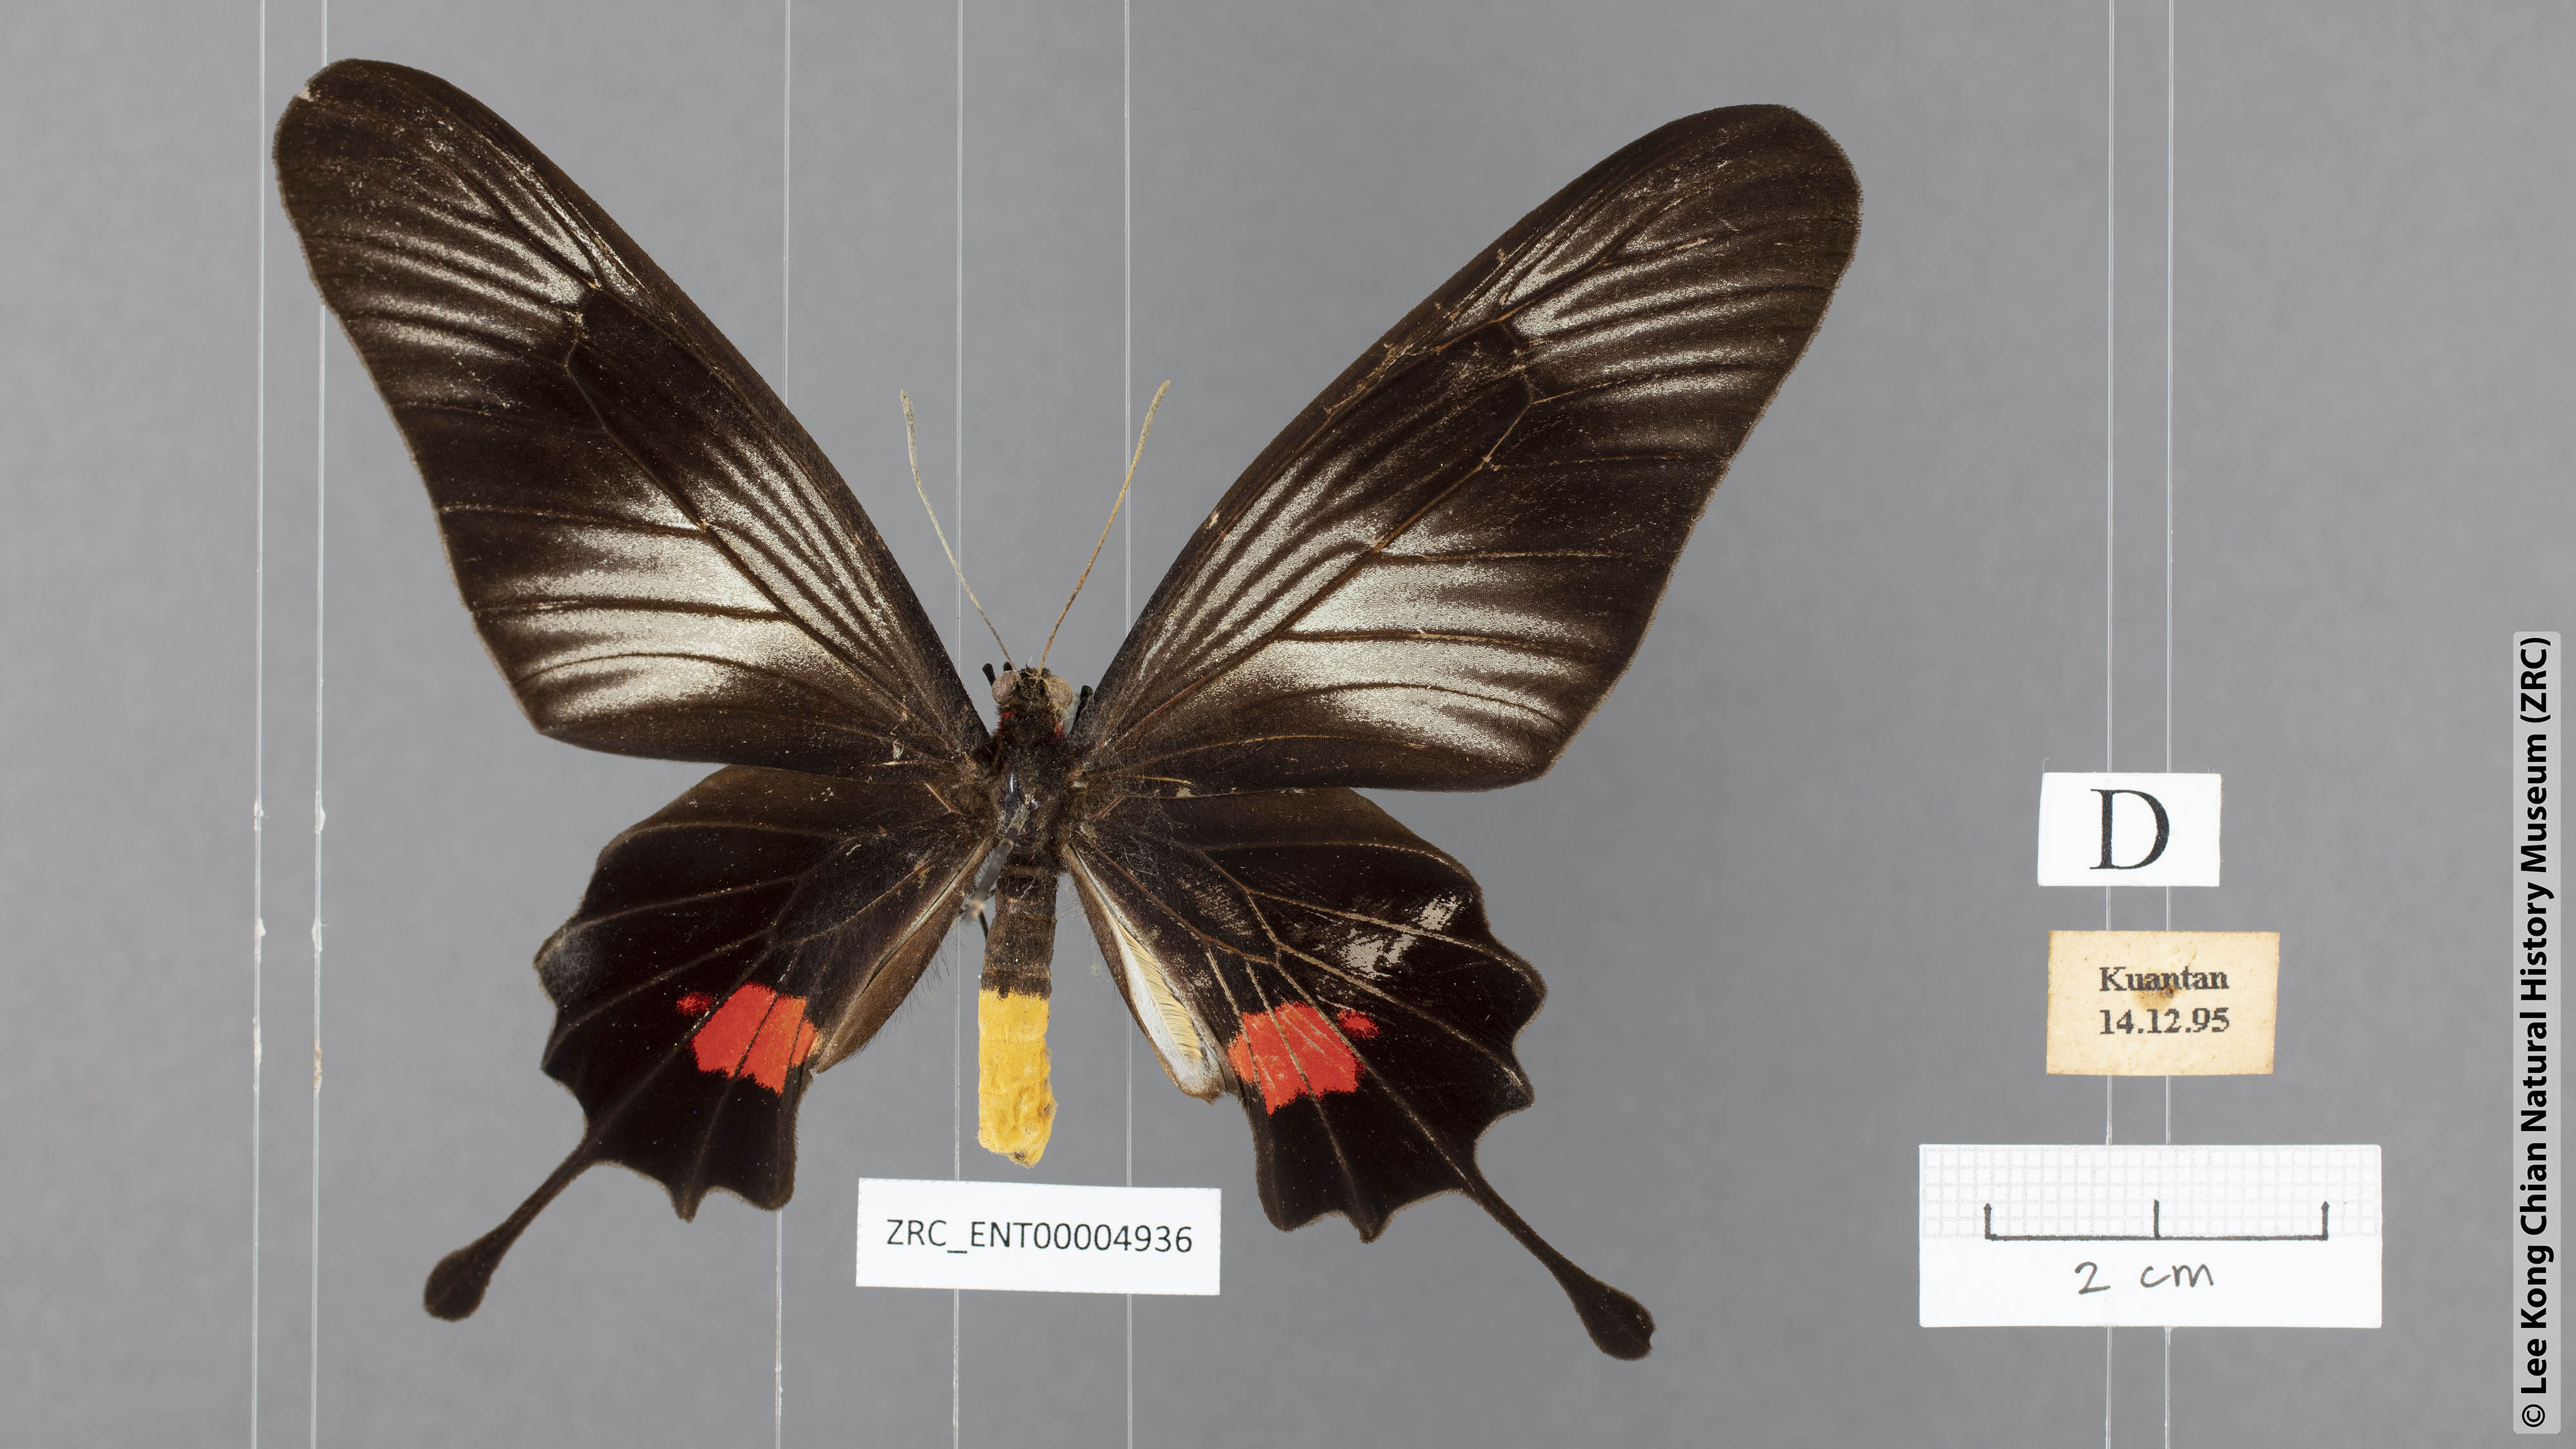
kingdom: Animalia
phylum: Arthropoda
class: Insecta
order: Lepidoptera
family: Papilionidae
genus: Losaria
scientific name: Losaria neptunus
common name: Yellow-bodied clubtail
